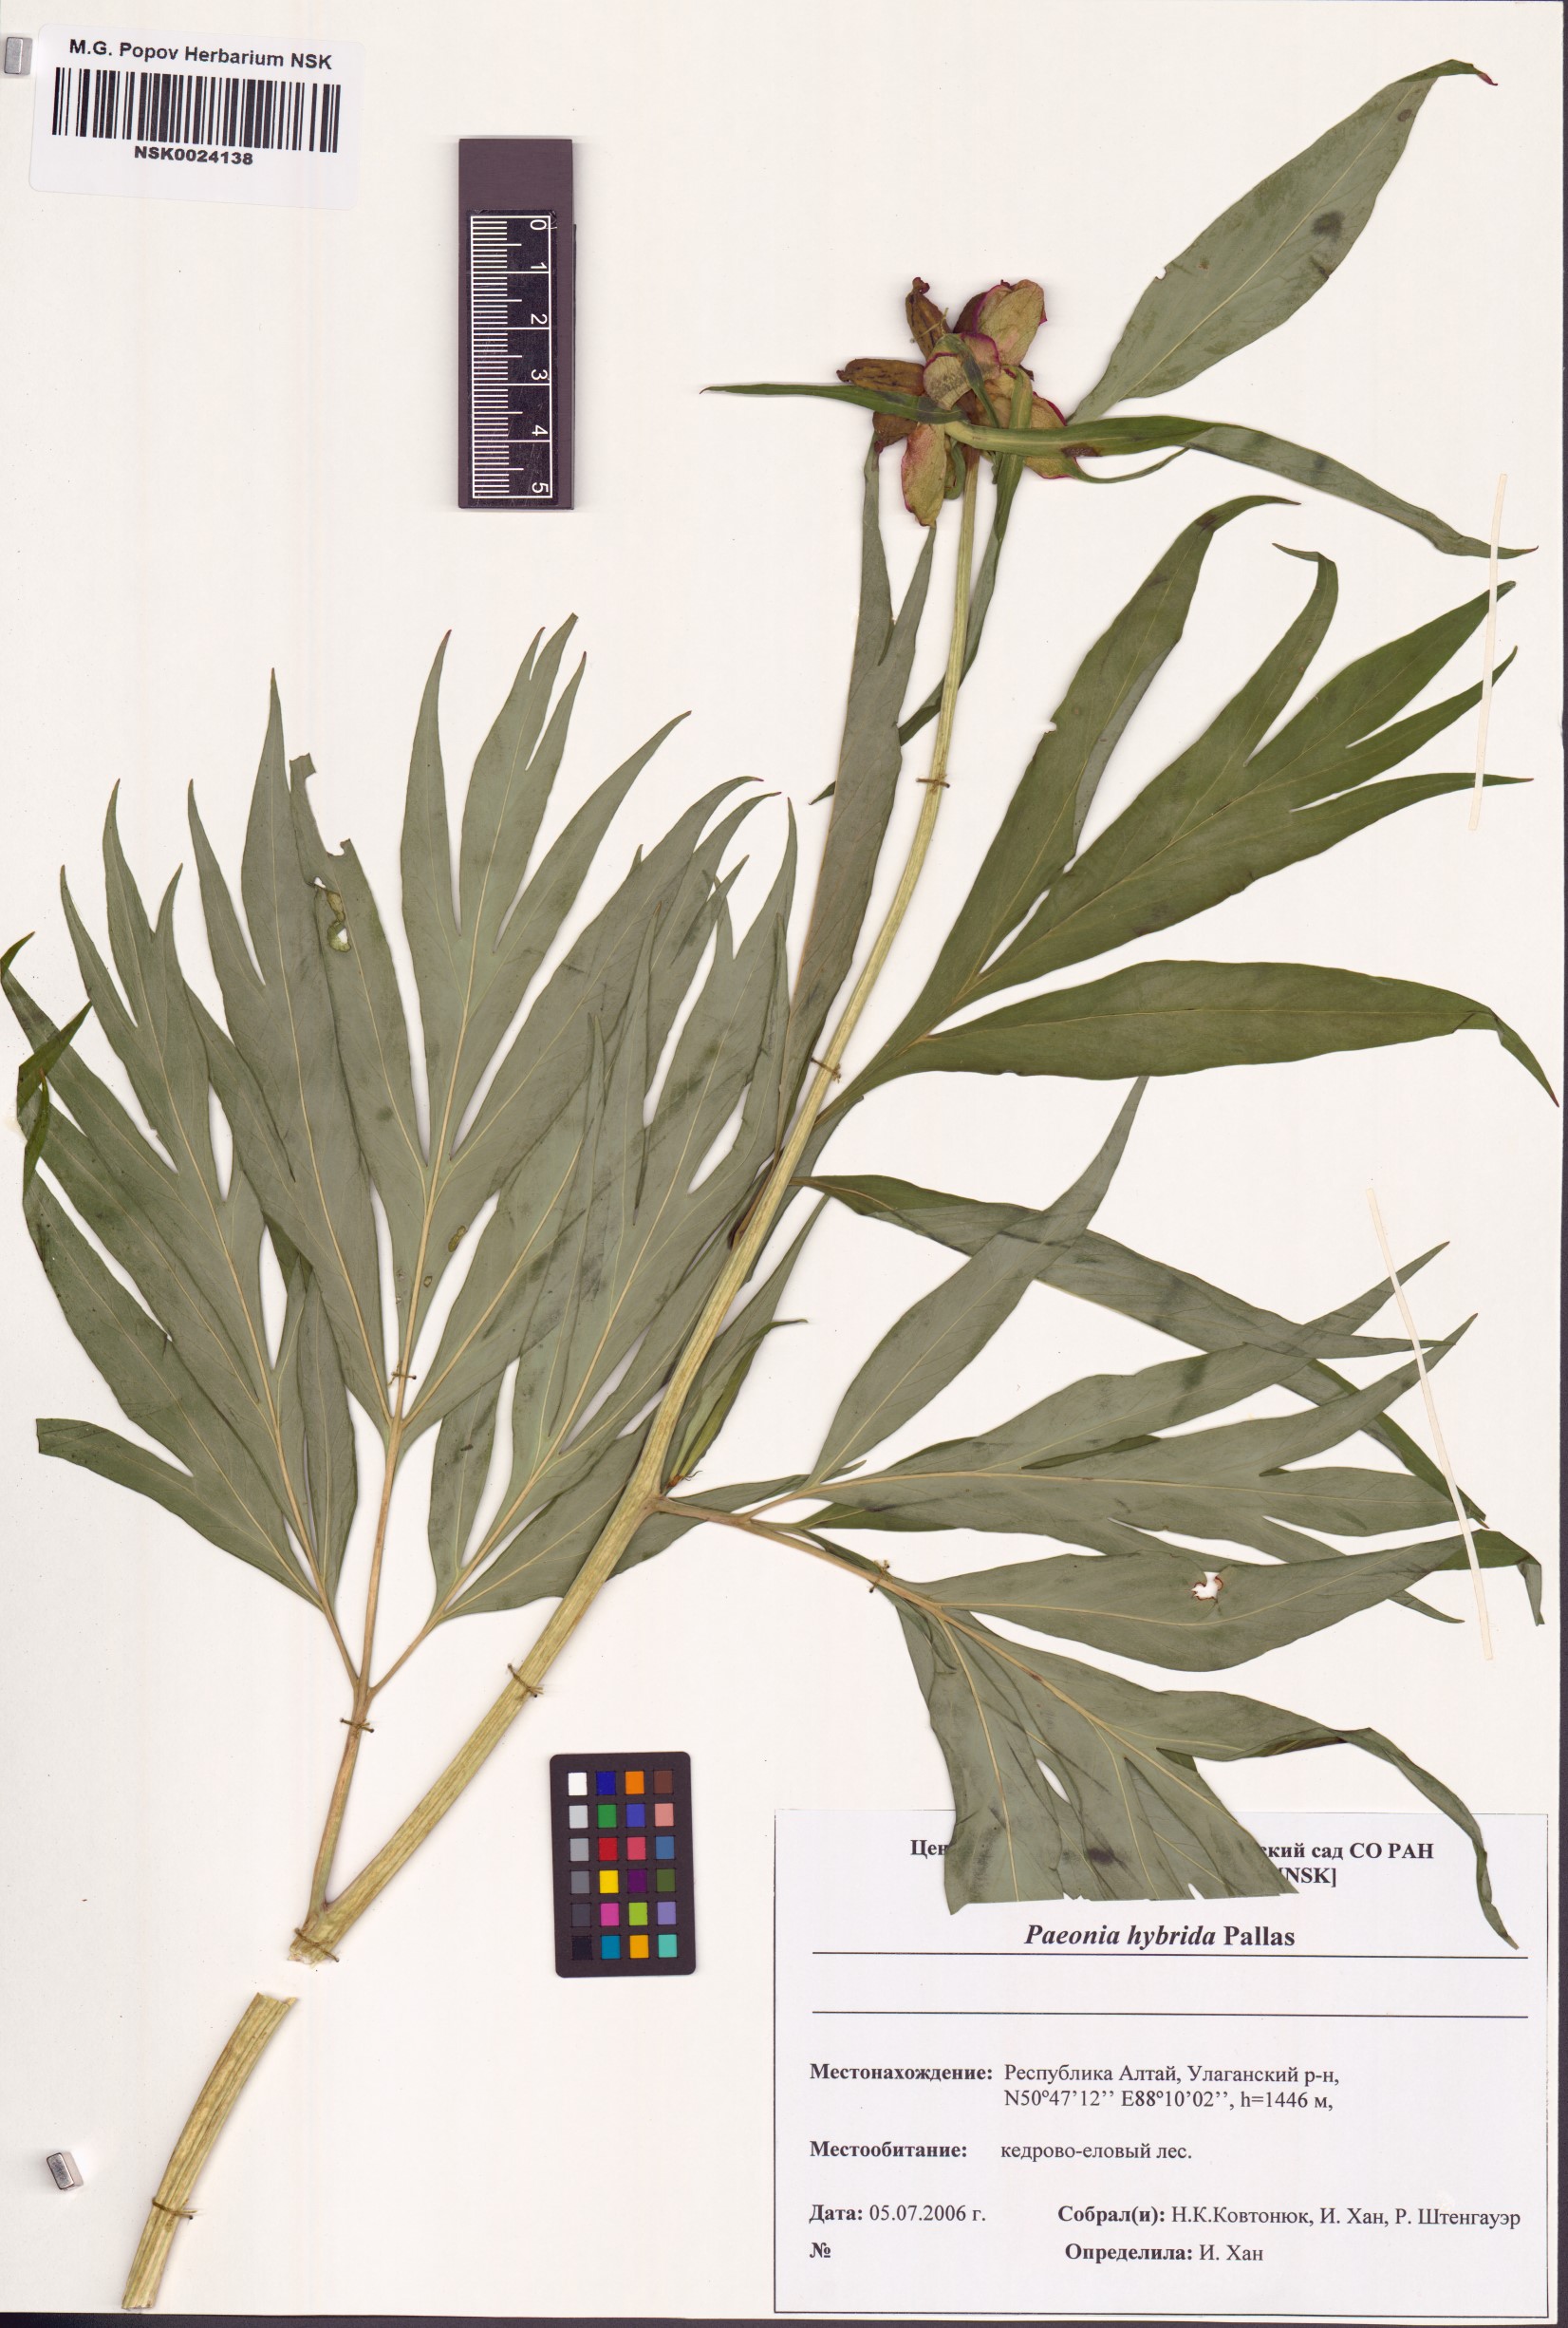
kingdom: Plantae
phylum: Tracheophyta
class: Magnoliopsida
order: Saxifragales
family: Paeoniaceae
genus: Paeonia
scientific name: Paeonia
